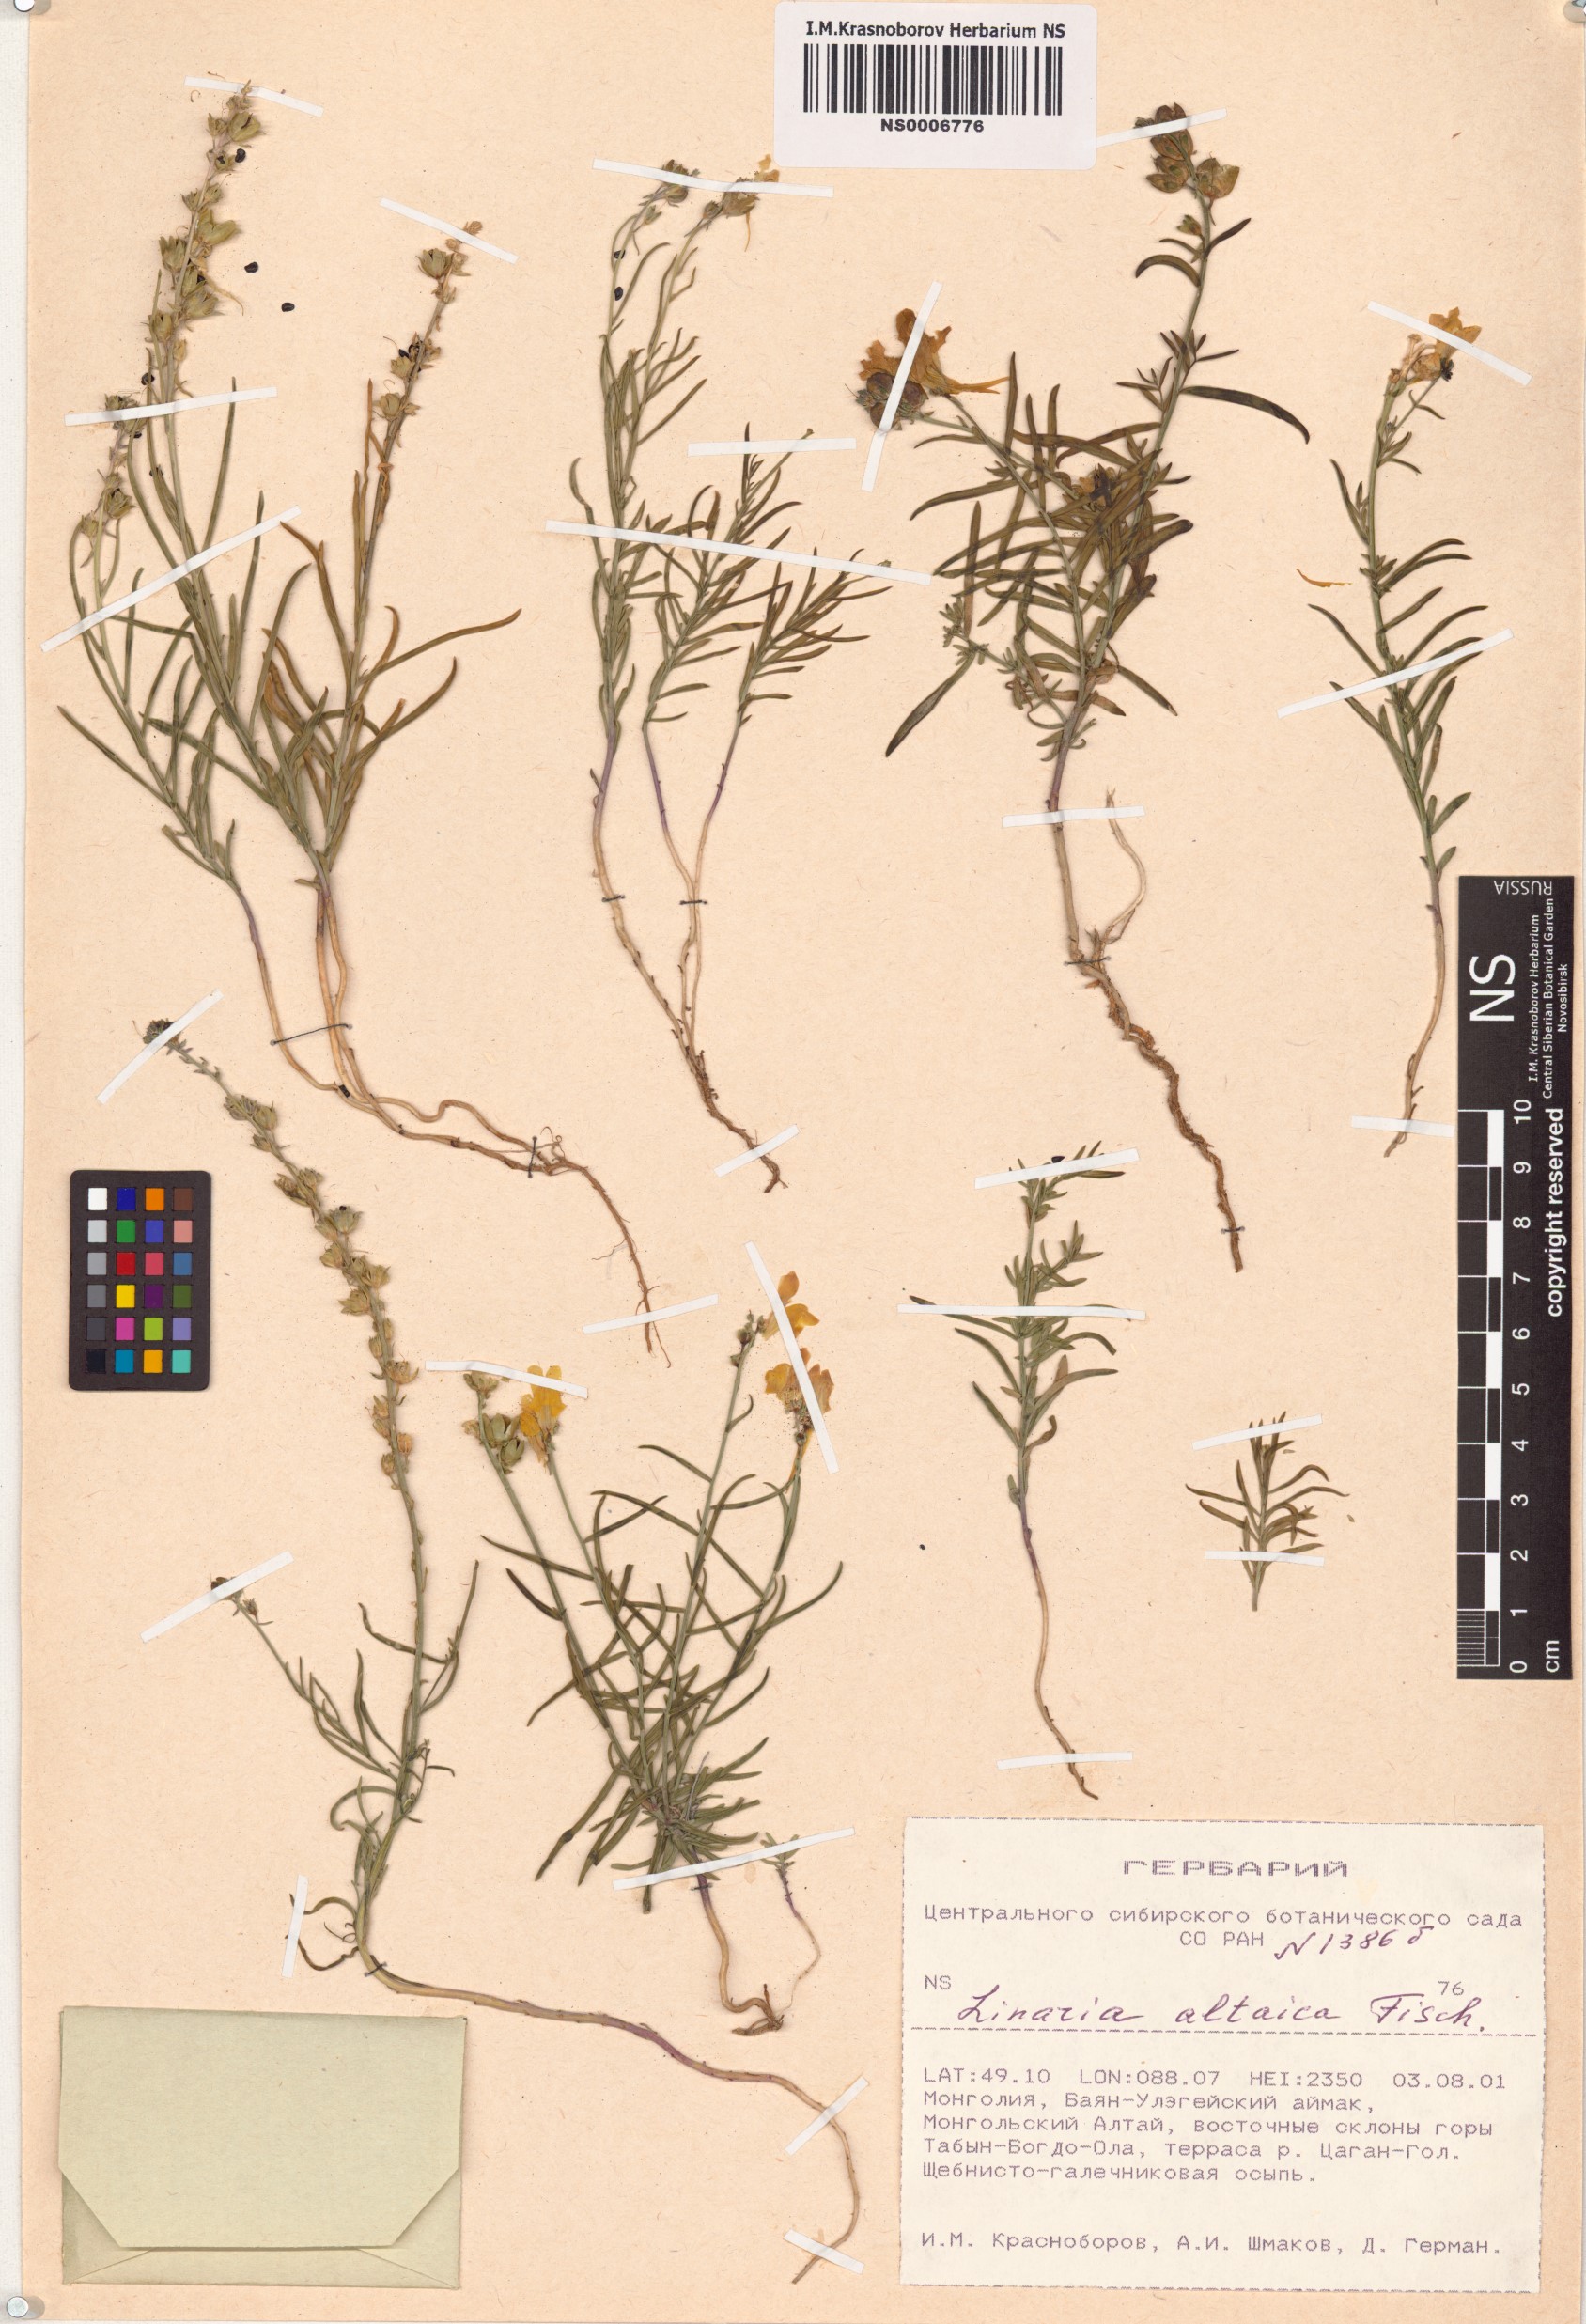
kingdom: Plantae
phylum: Tracheophyta
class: Magnoliopsida
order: Lamiales
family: Plantaginaceae
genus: Linaria
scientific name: Linaria altaica
